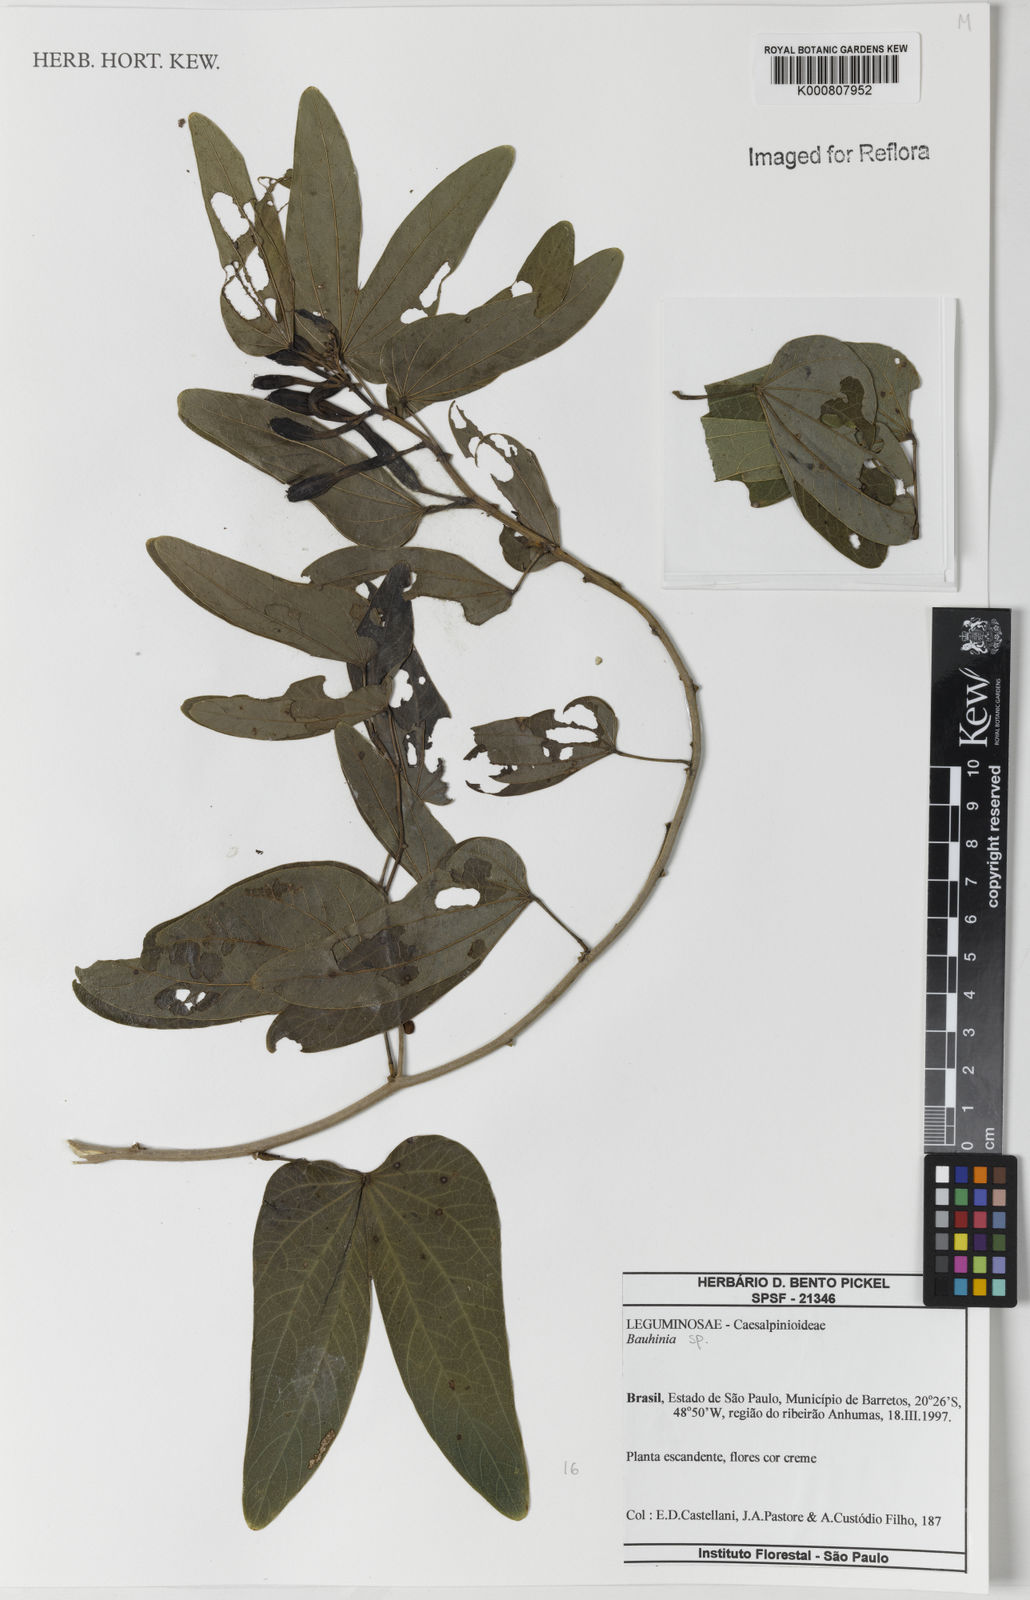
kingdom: Plantae
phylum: Tracheophyta
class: Magnoliopsida
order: Fabales
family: Fabaceae
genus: Bauhinia
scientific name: Bauhinia
